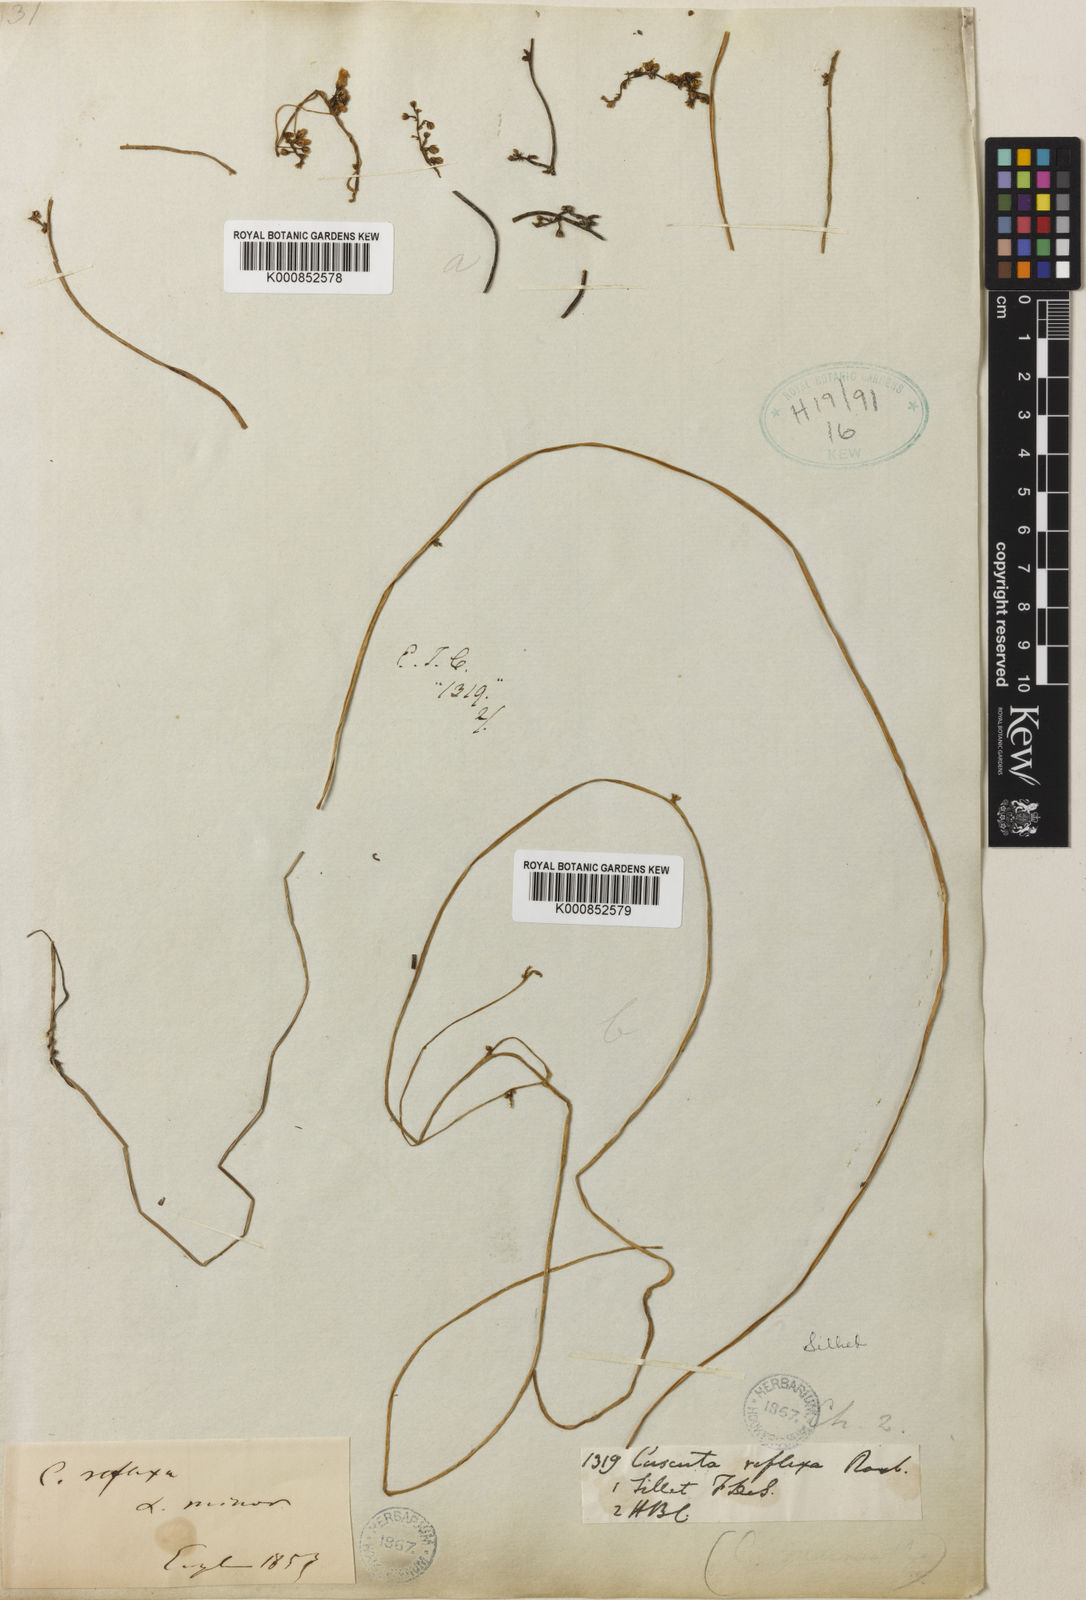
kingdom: Plantae
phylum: Tracheophyta
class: Magnoliopsida
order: Solanales
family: Convolvulaceae
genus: Cuscuta
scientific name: Cuscuta reflexa
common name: Giant dodder
